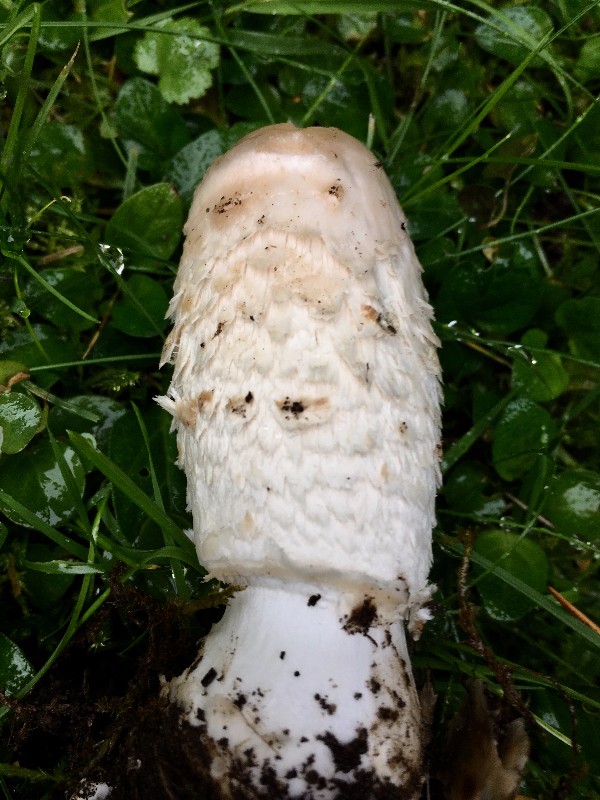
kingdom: Fungi
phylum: Basidiomycota
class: Agaricomycetes
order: Agaricales
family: Agaricaceae
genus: Coprinus
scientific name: Coprinus comatus
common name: stor parykhat
